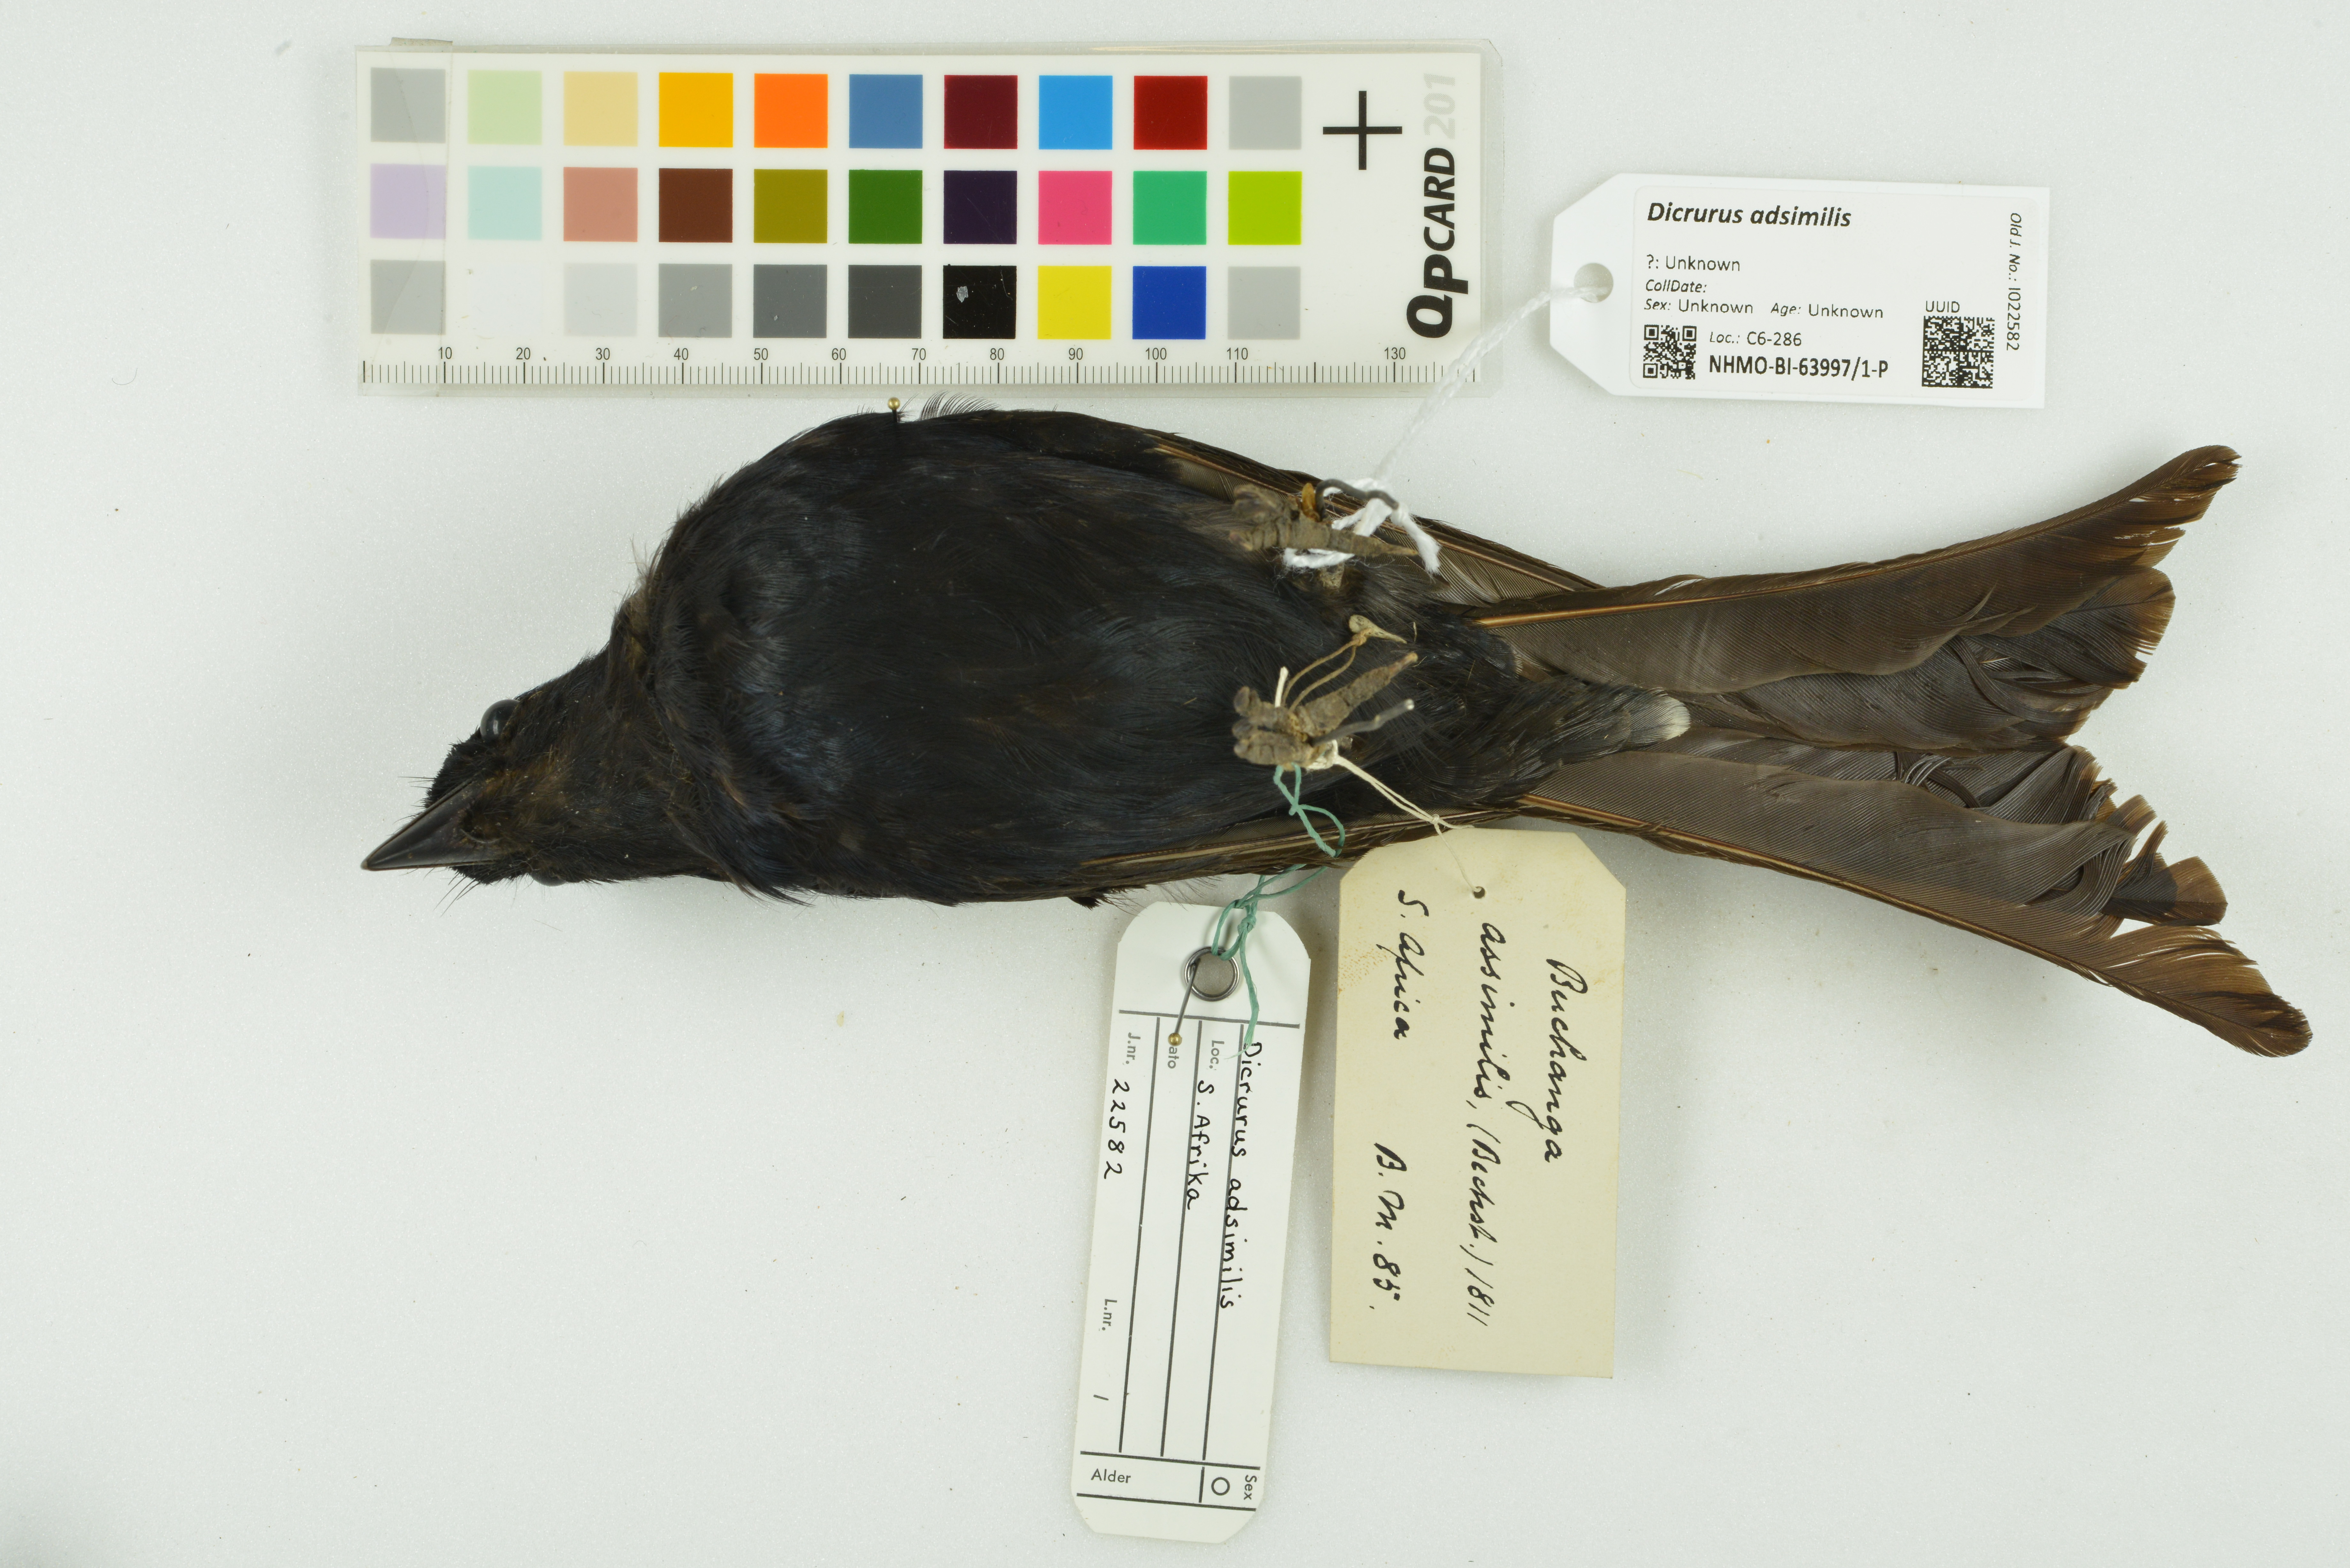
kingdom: Animalia
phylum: Chordata
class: Aves
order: Passeriformes
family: Dicruridae
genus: Dicrurus
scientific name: Dicrurus adsimilis
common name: Fork-tailed drongo
